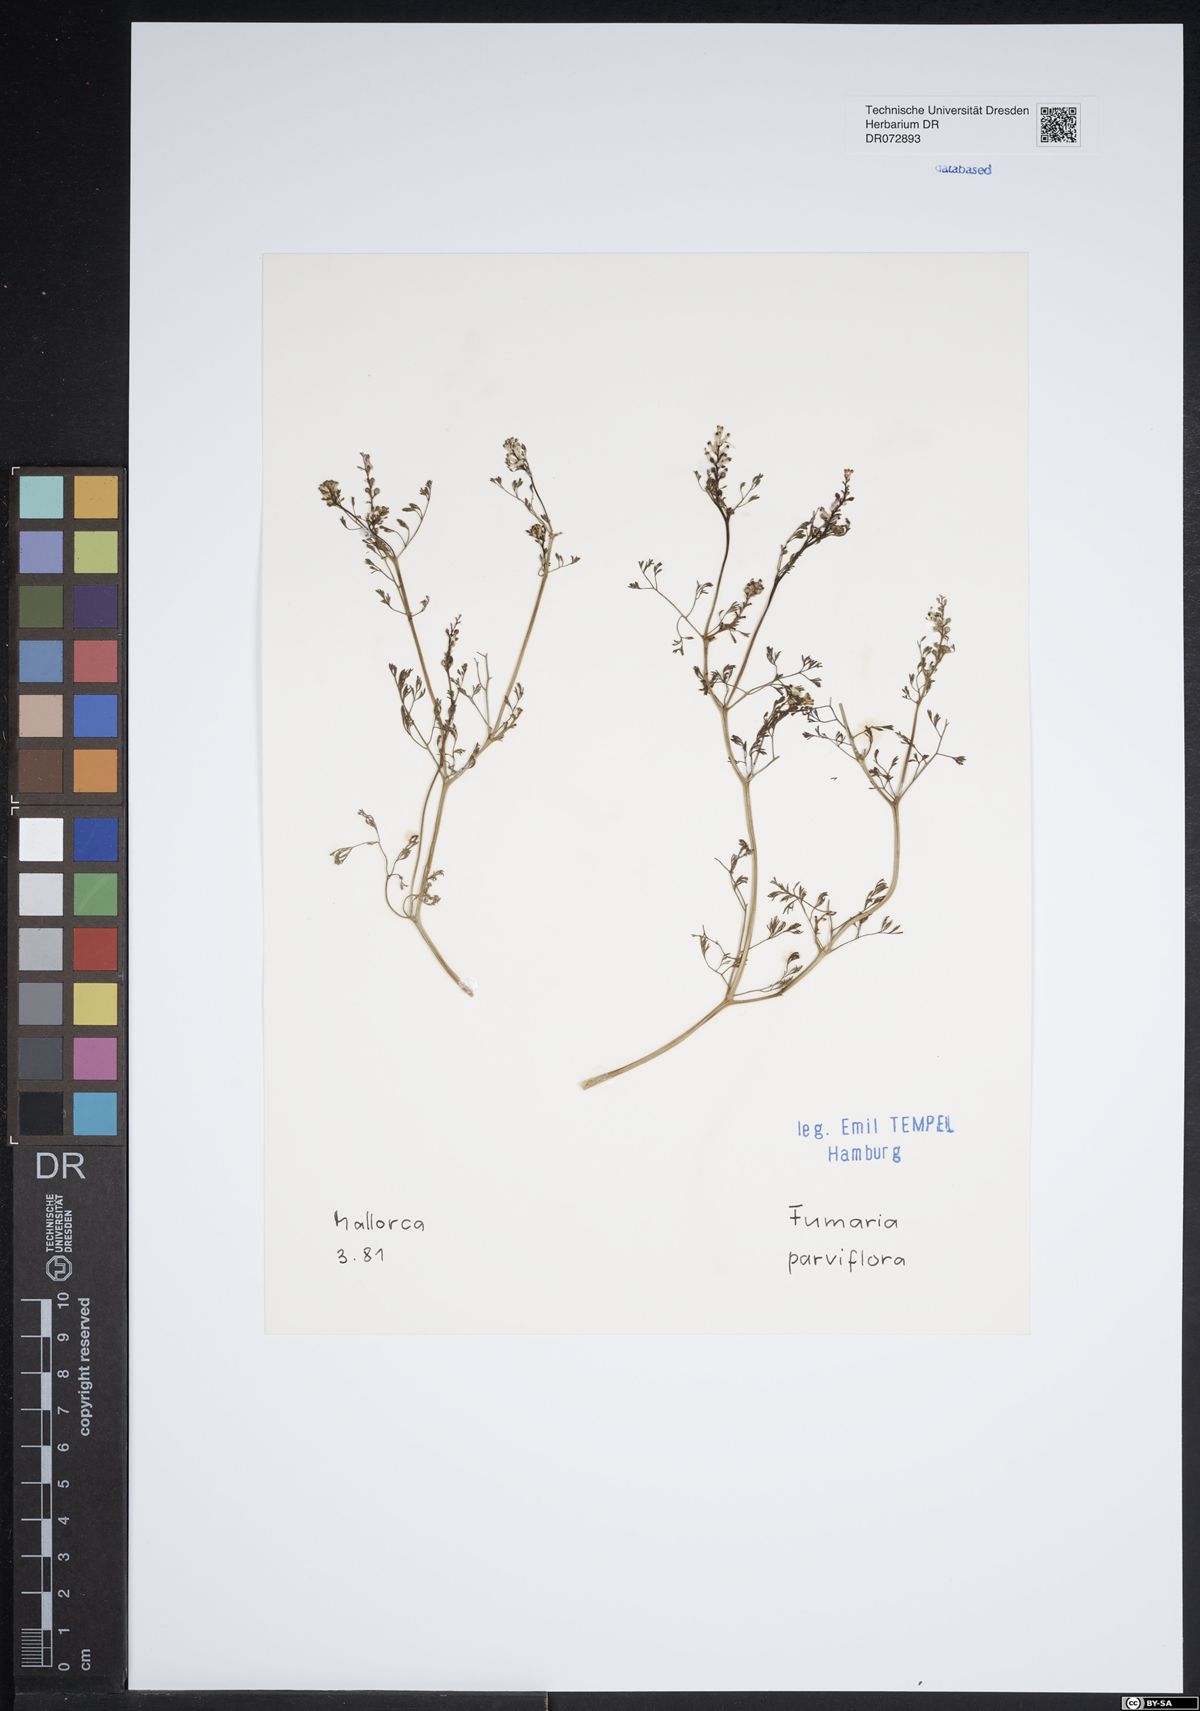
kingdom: Plantae
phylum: Tracheophyta
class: Magnoliopsida
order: Ranunculales
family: Papaveraceae
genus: Fumaria
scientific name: Fumaria parviflora
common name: Fine-leaved fumitory
